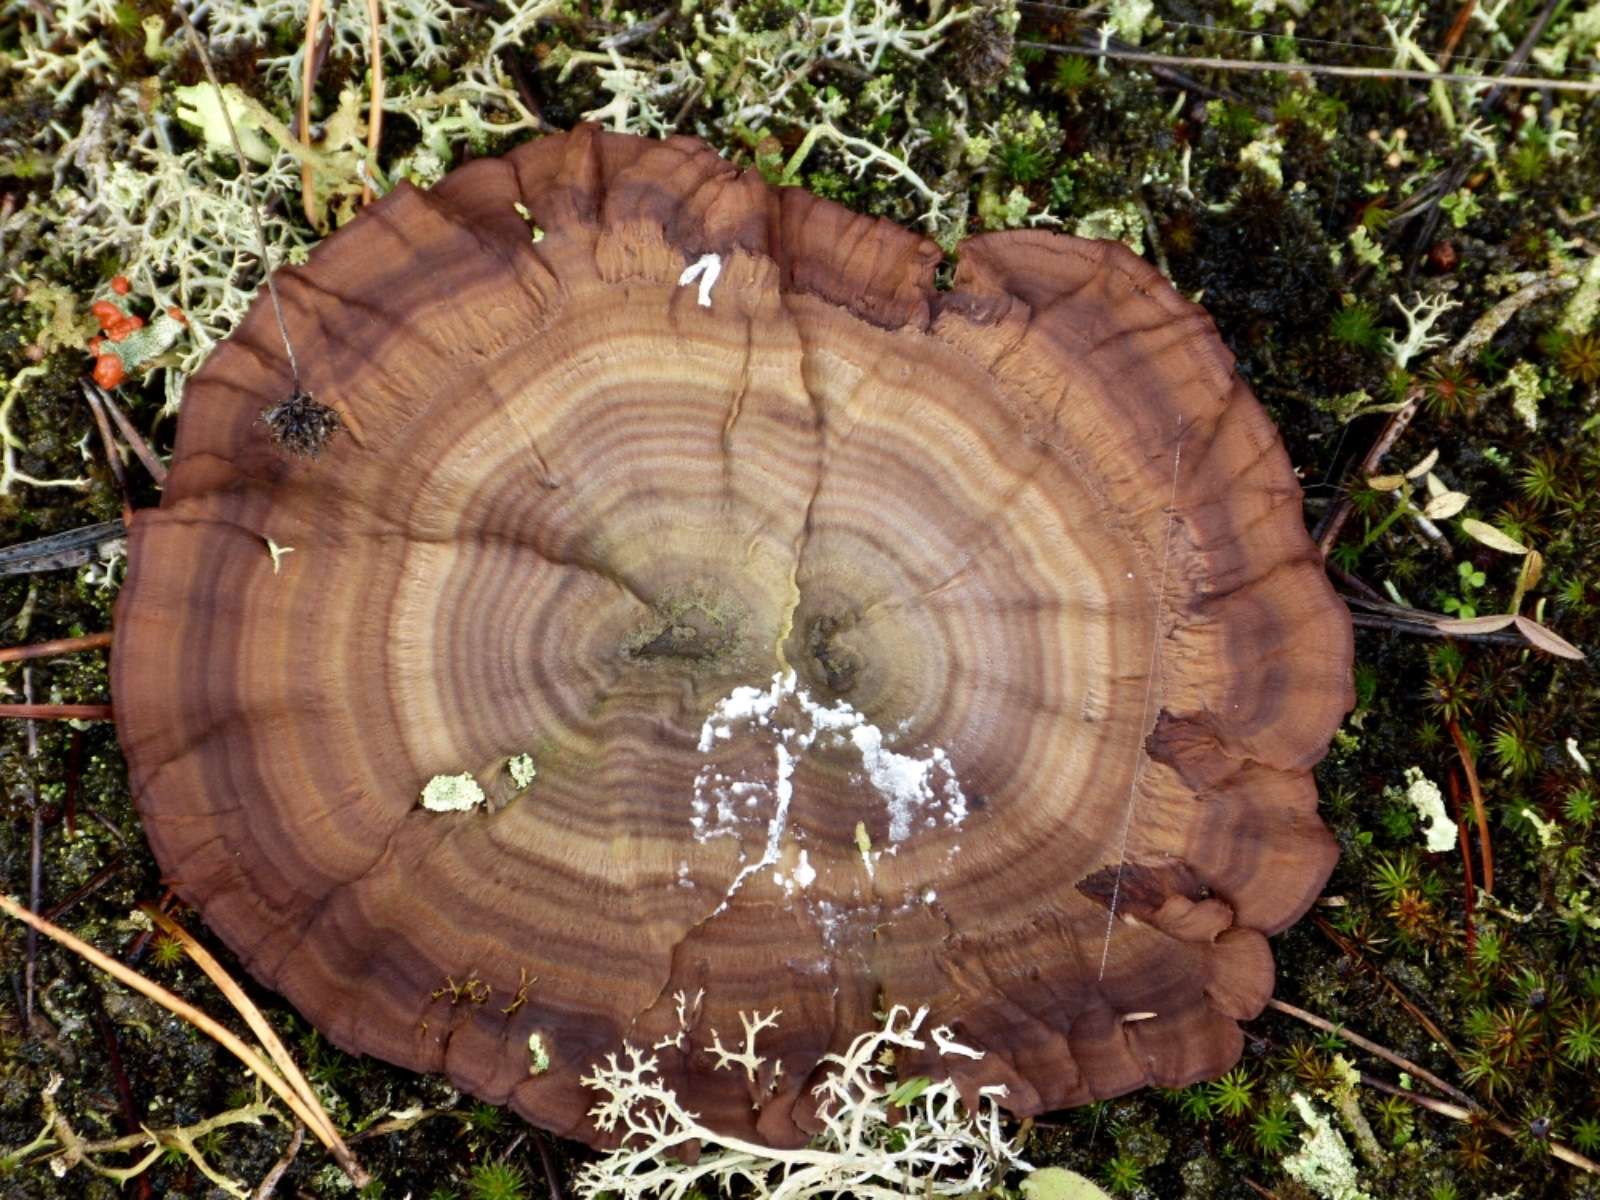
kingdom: Fungi
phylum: Basidiomycota
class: Agaricomycetes
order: Hymenochaetales
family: Hymenochaetaceae
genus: Coltricia
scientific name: Coltricia perennis
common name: almindelig sandporesvamp
